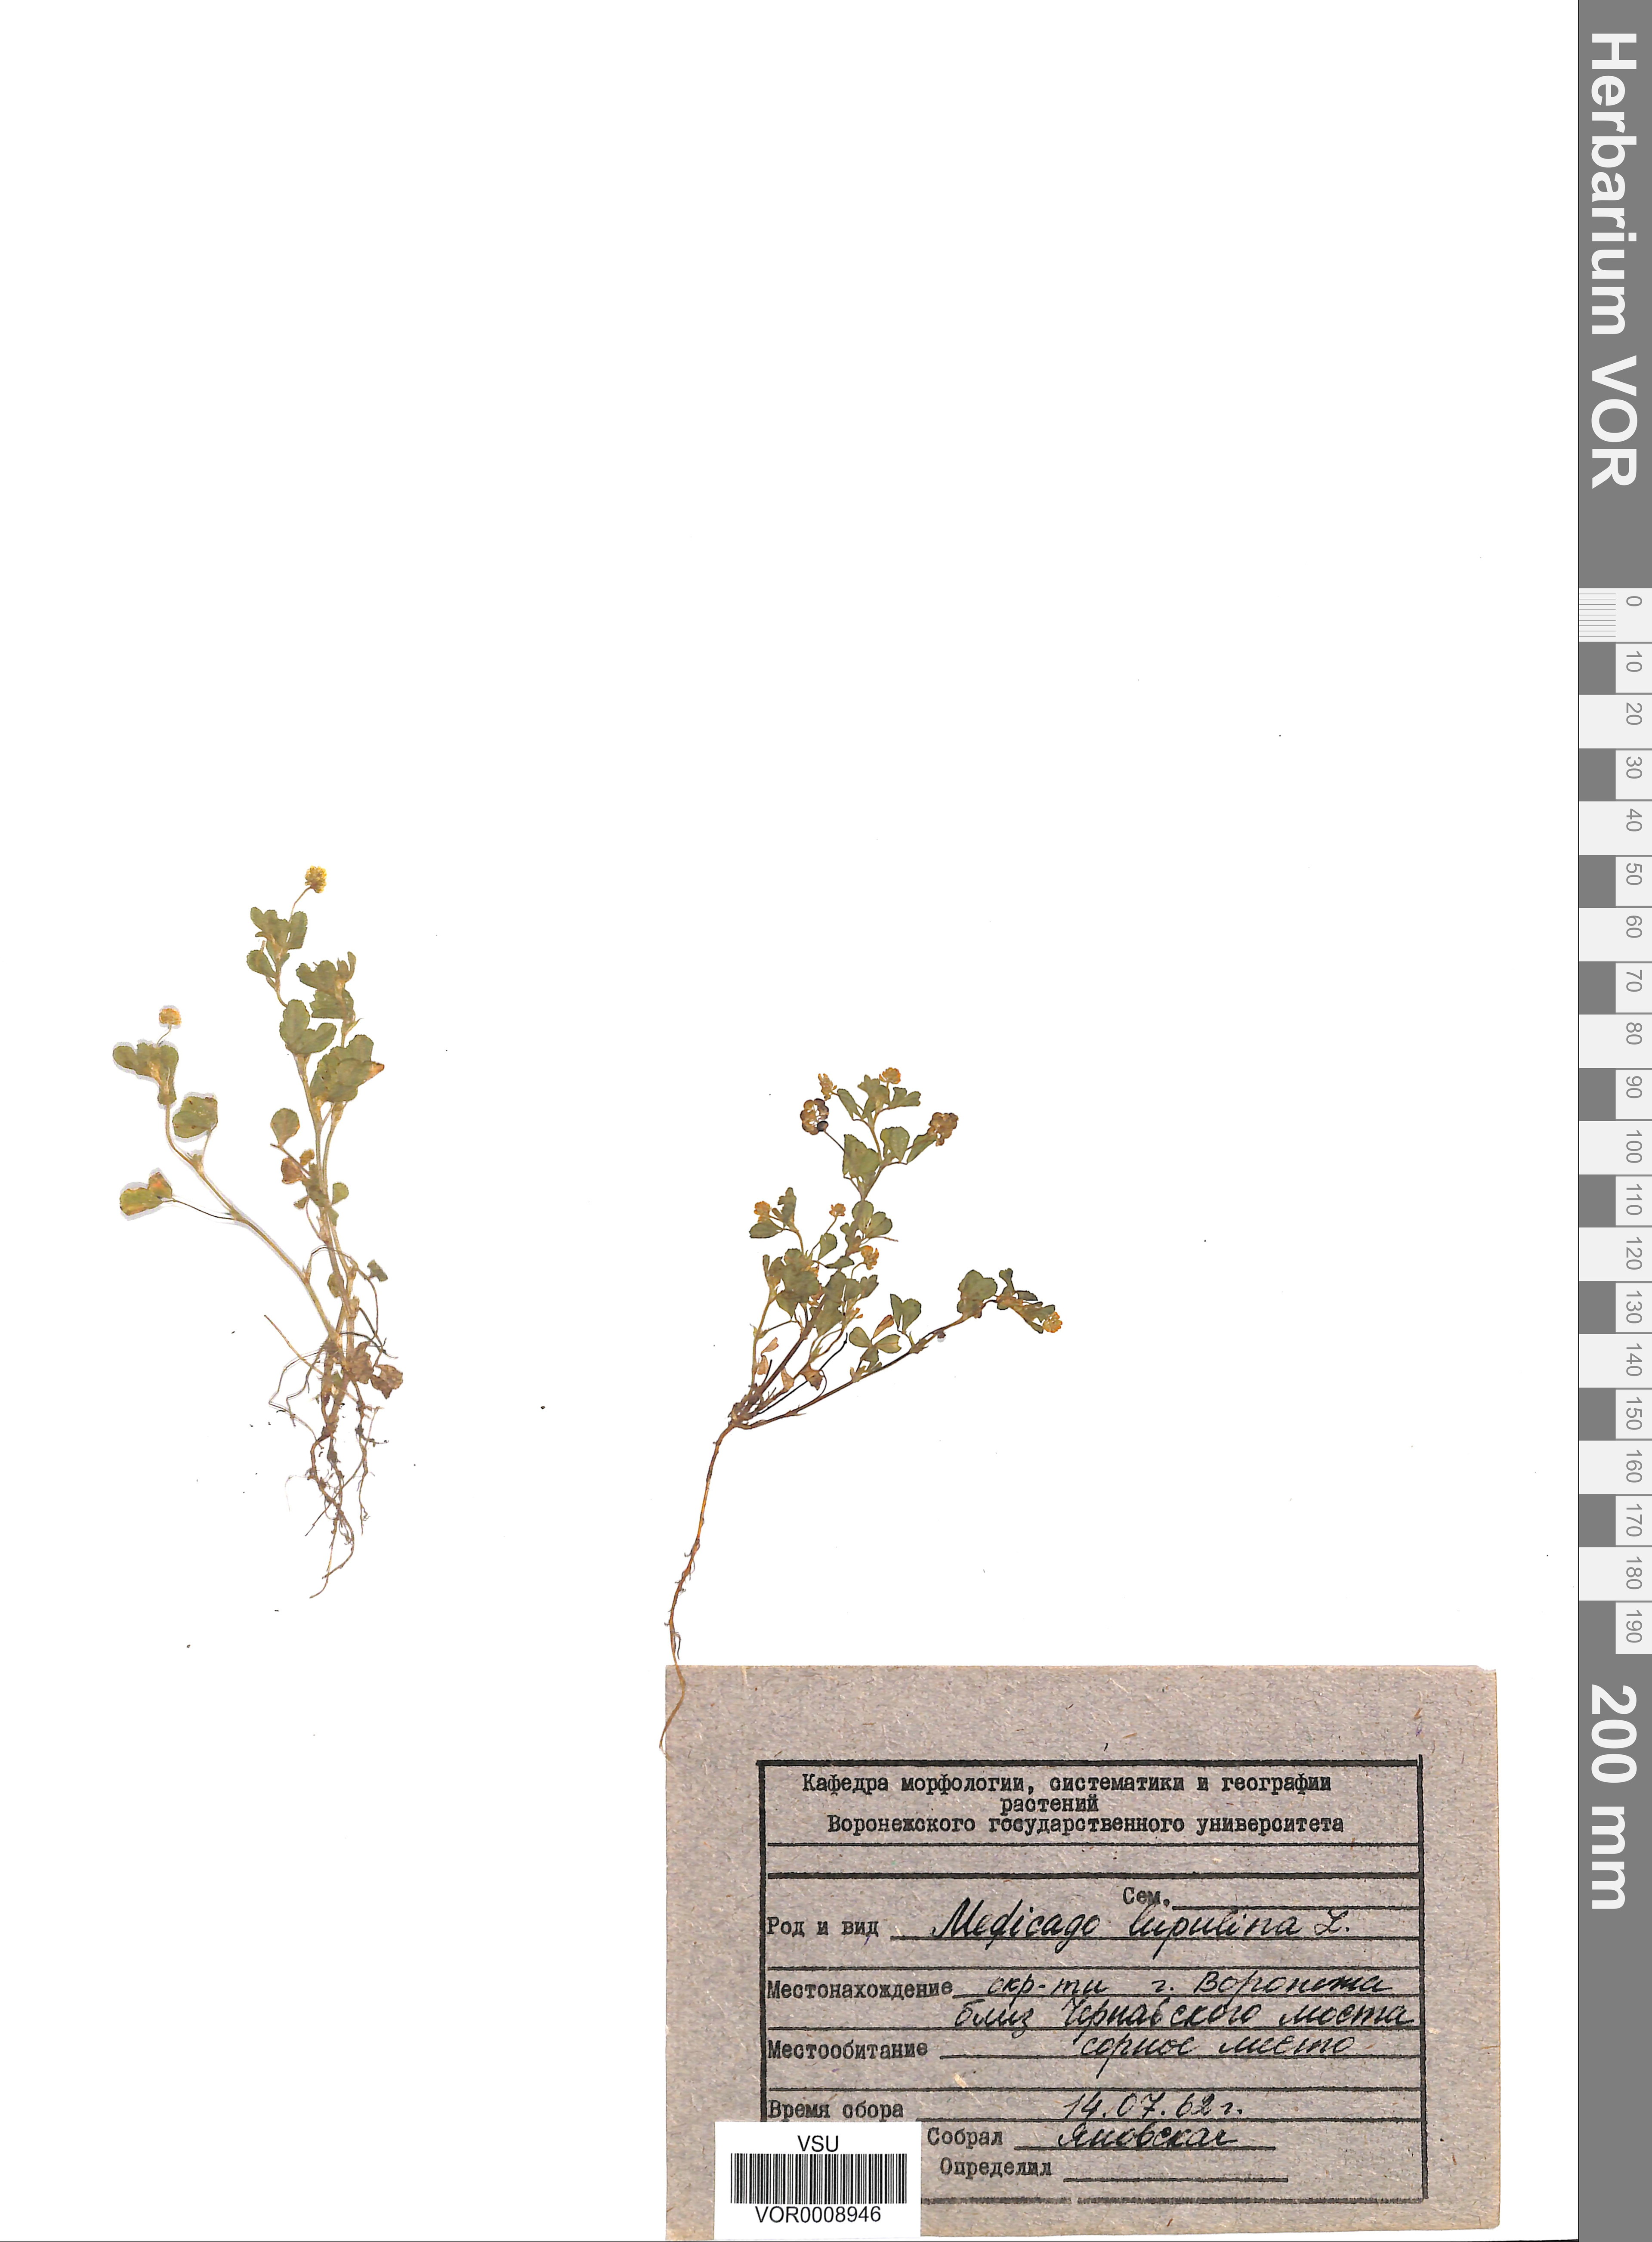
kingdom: Plantae
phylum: Tracheophyta
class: Magnoliopsida
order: Fabales
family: Fabaceae
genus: Medicago
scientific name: Medicago lupulina
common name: Black medick
